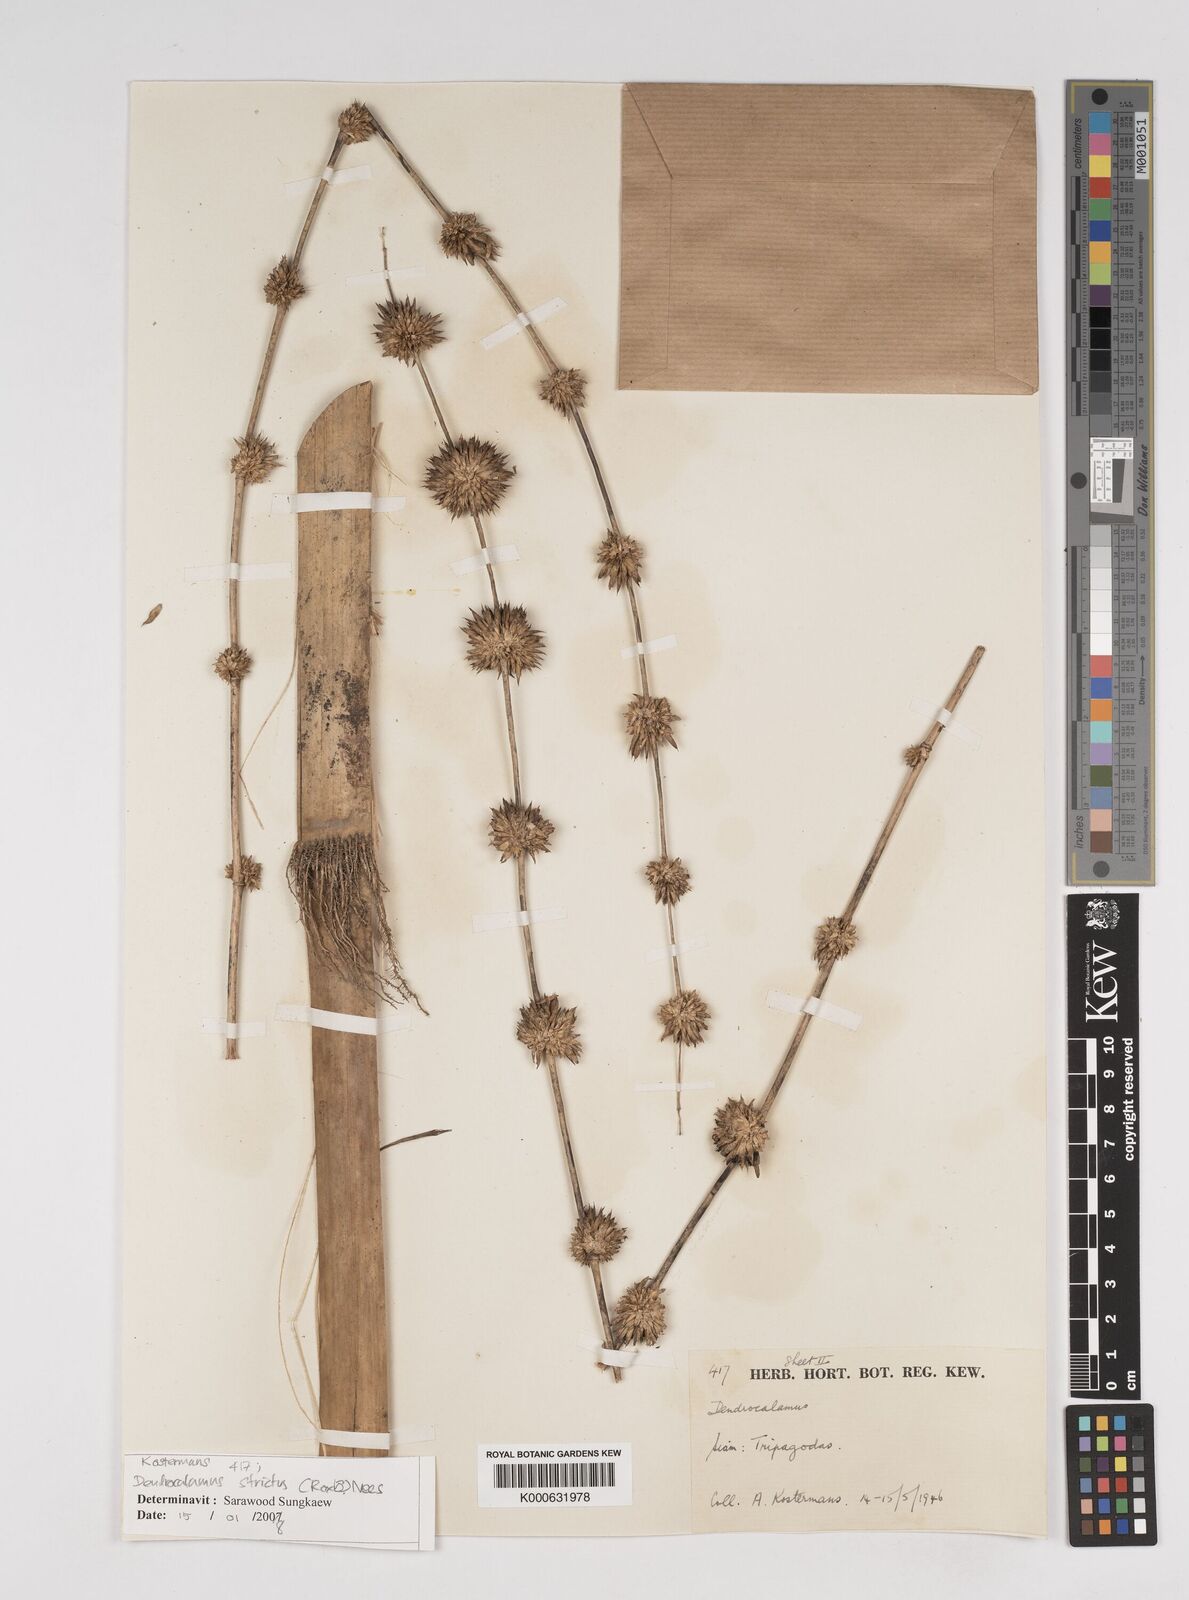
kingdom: Plantae
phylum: Tracheophyta
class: Liliopsida
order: Poales
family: Poaceae
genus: Dendrocalamus
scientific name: Dendrocalamus strictus
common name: Male bamboo
